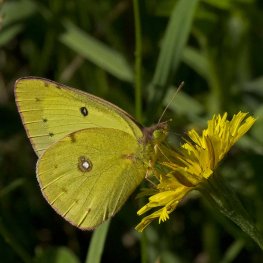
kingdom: Animalia
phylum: Arthropoda
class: Insecta
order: Lepidoptera
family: Pieridae
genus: Colias
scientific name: Colias philodice
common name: Clouded Sulphur
